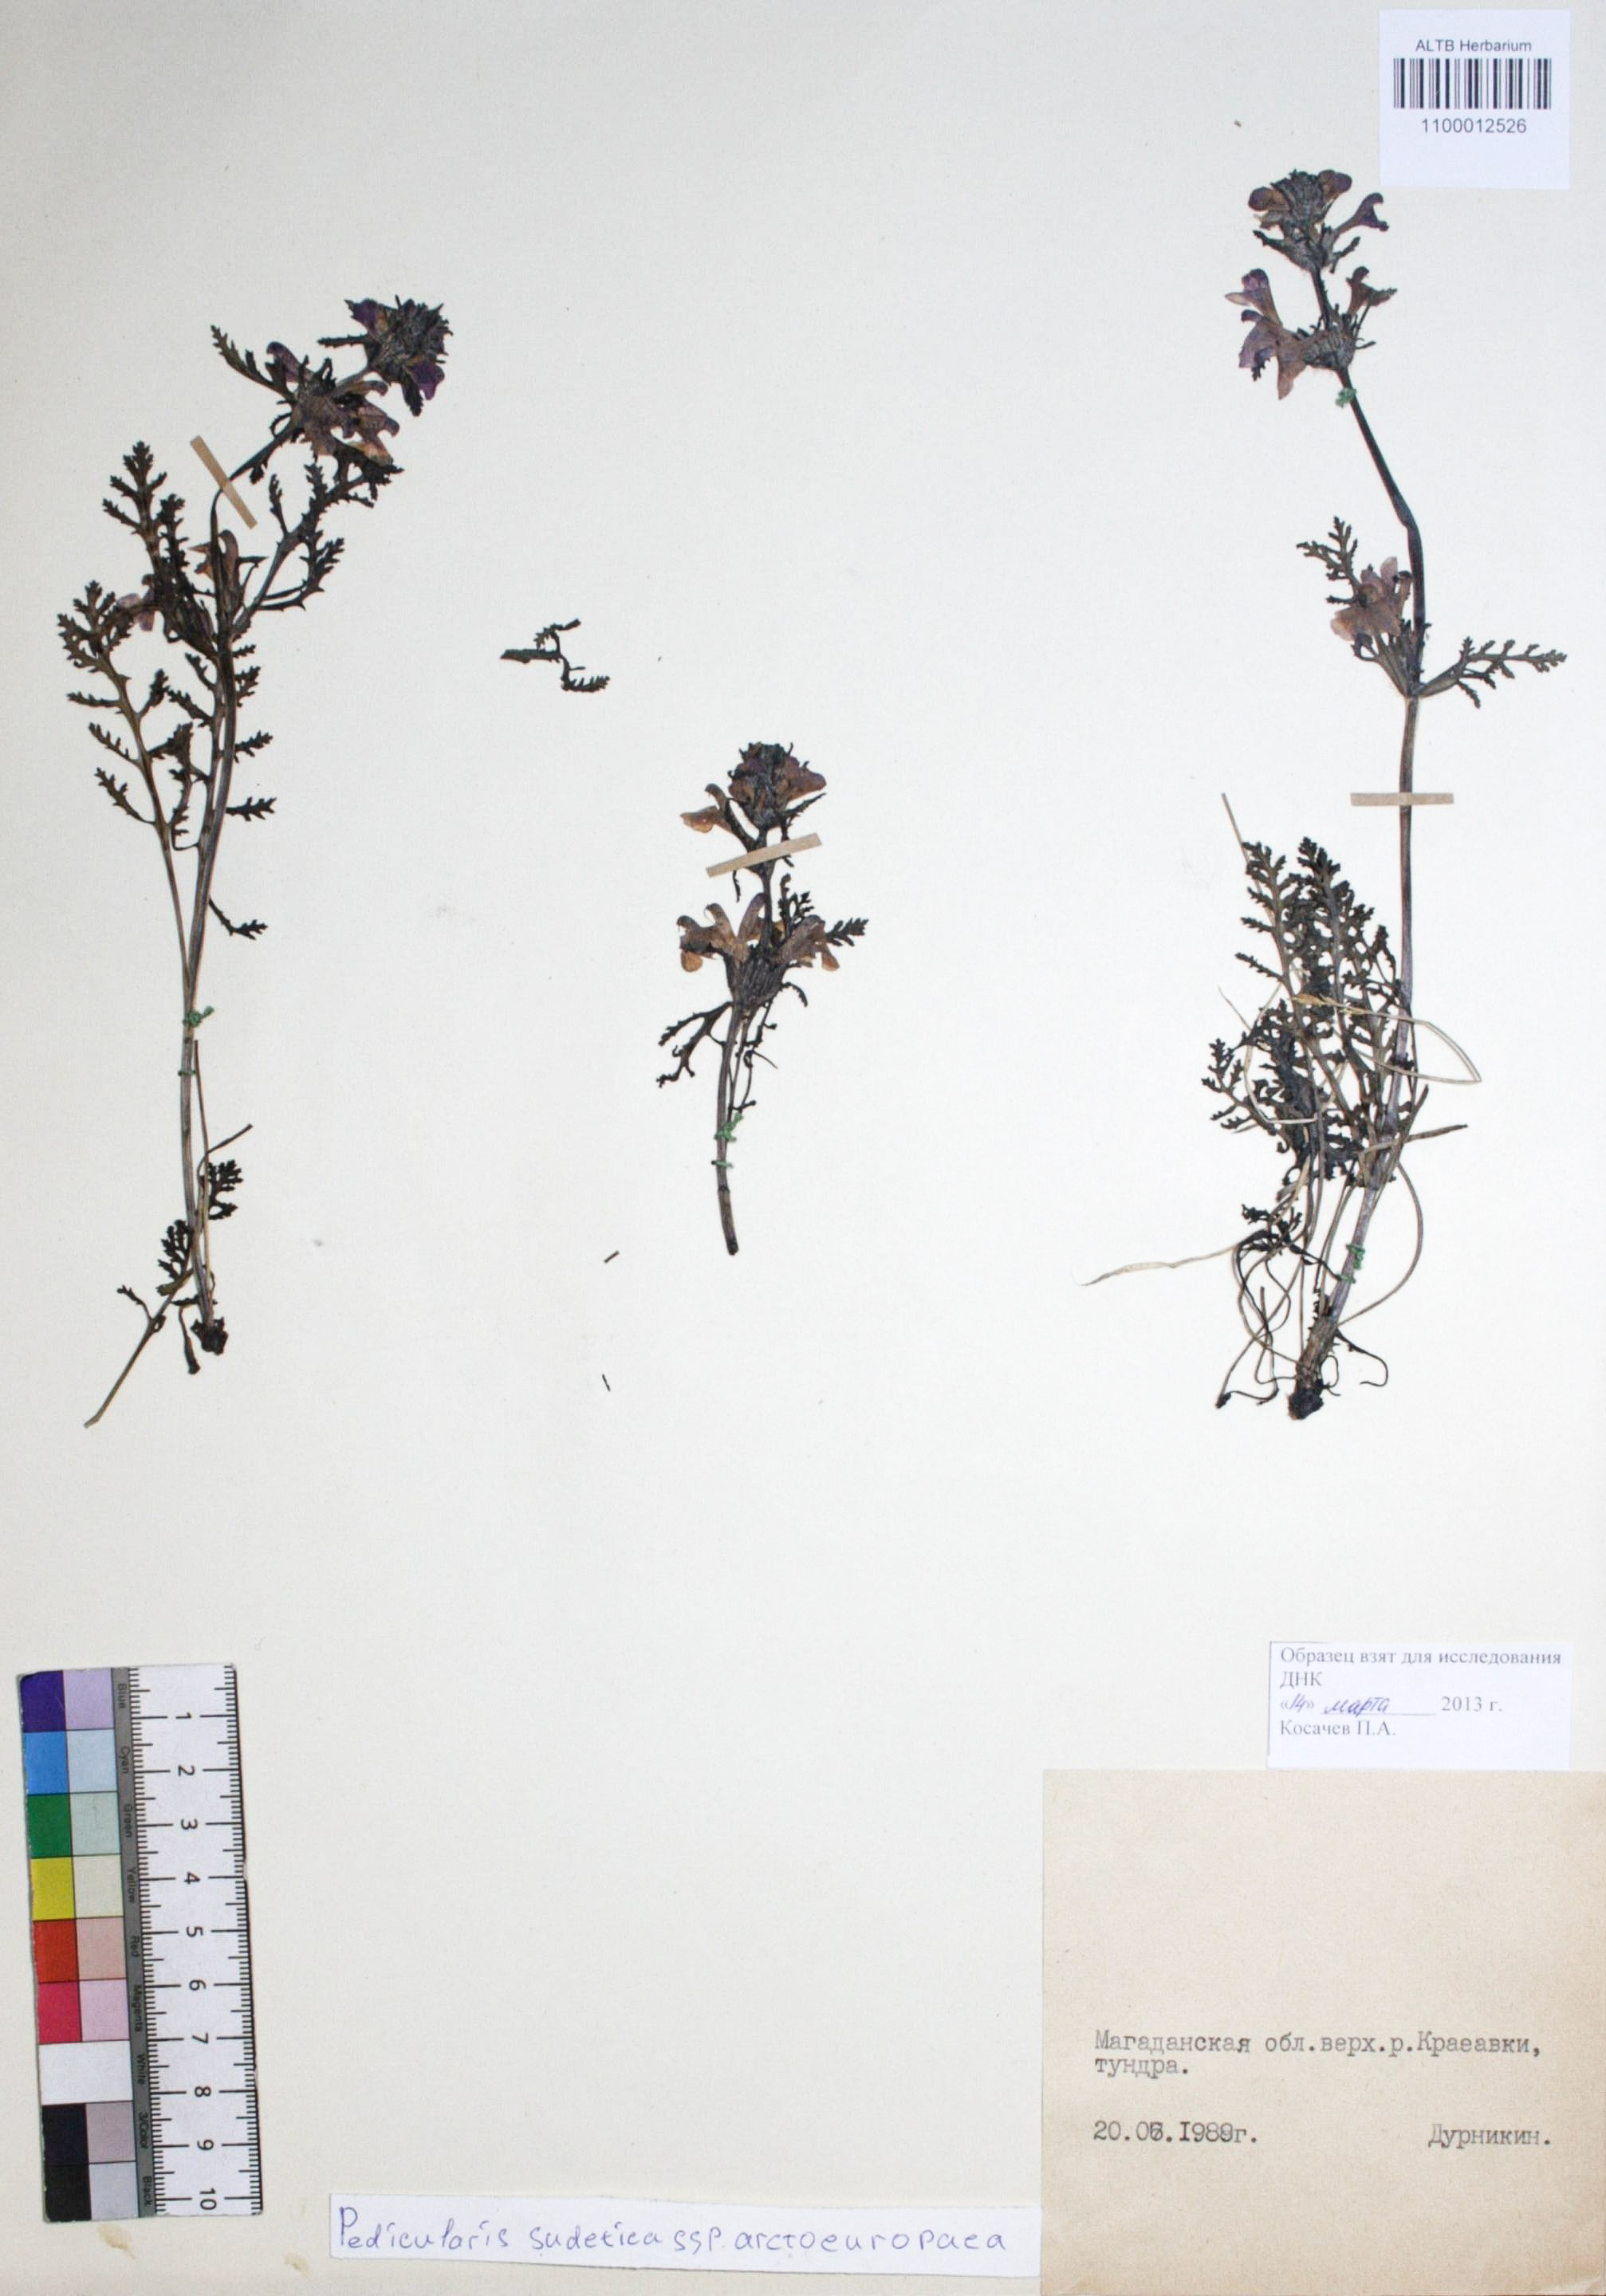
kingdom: Plantae
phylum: Tracheophyta
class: Magnoliopsida
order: Lamiales
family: Orobanchaceae
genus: Pedicularis
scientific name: Pedicularis arctoeuropaea
